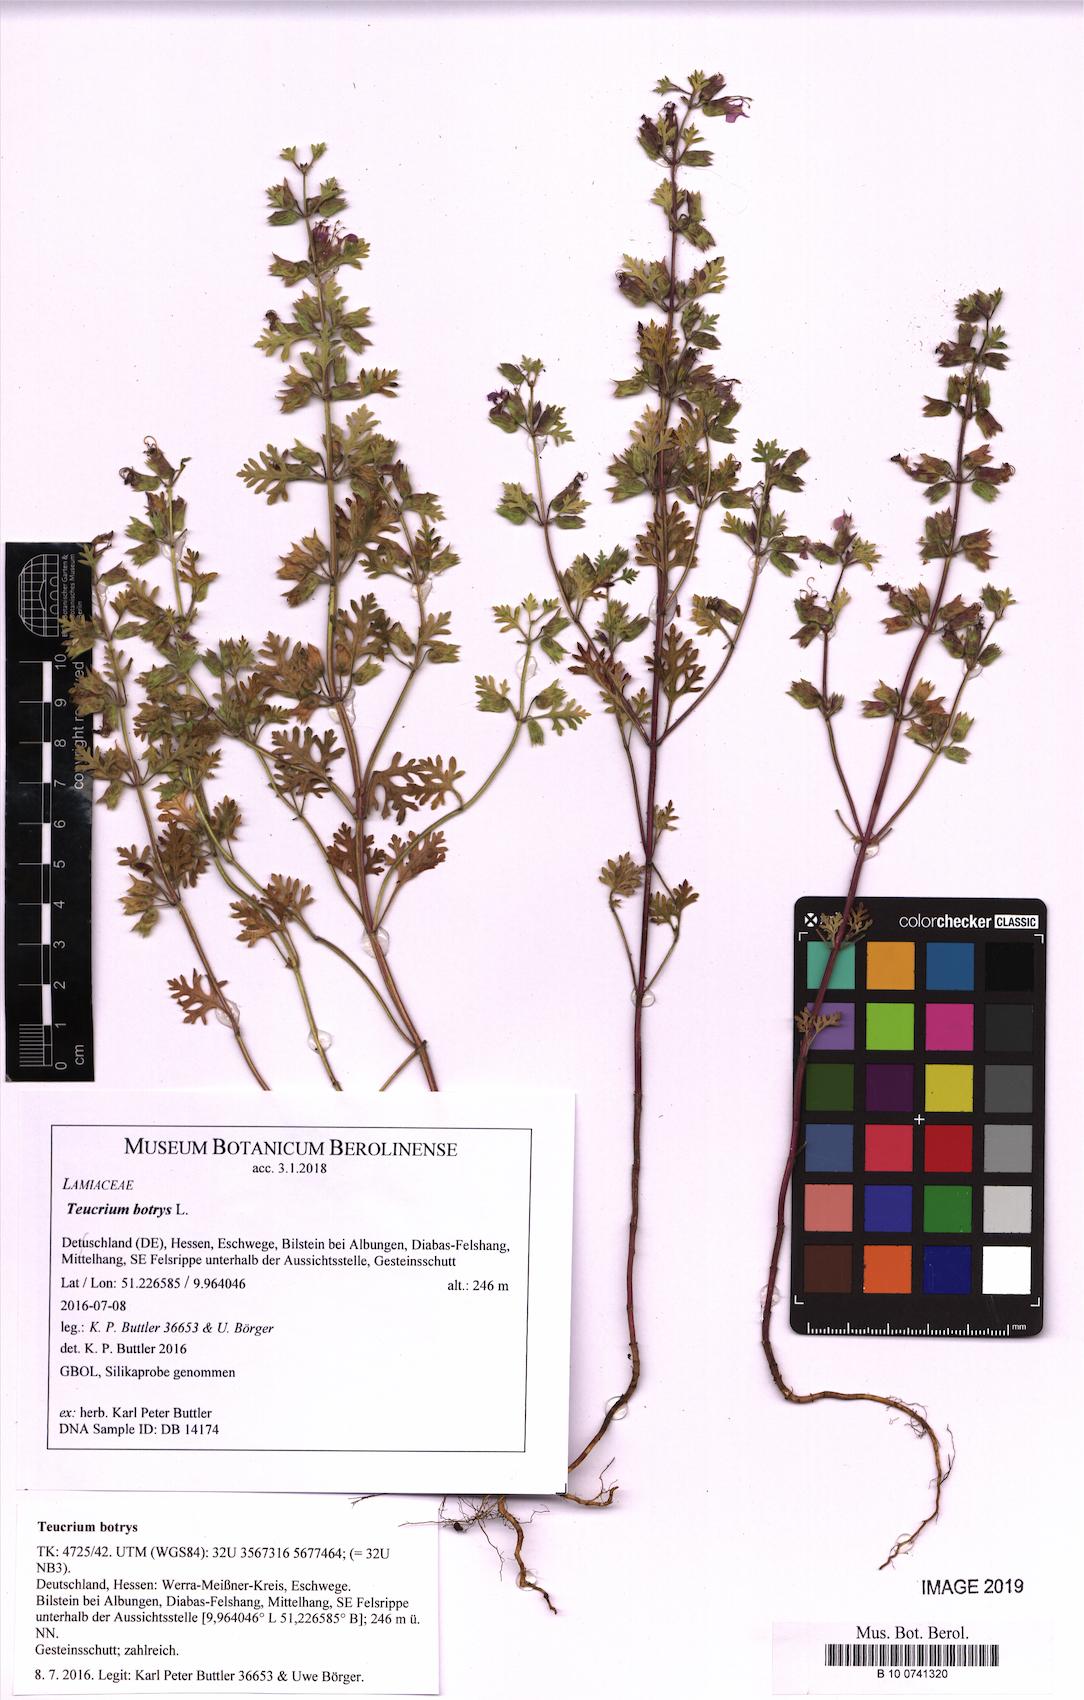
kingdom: Plantae
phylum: Tracheophyta
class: Magnoliopsida
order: Lamiales
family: Lamiaceae
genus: Teucrium
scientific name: Teucrium botrys
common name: Cut-leaved germander
